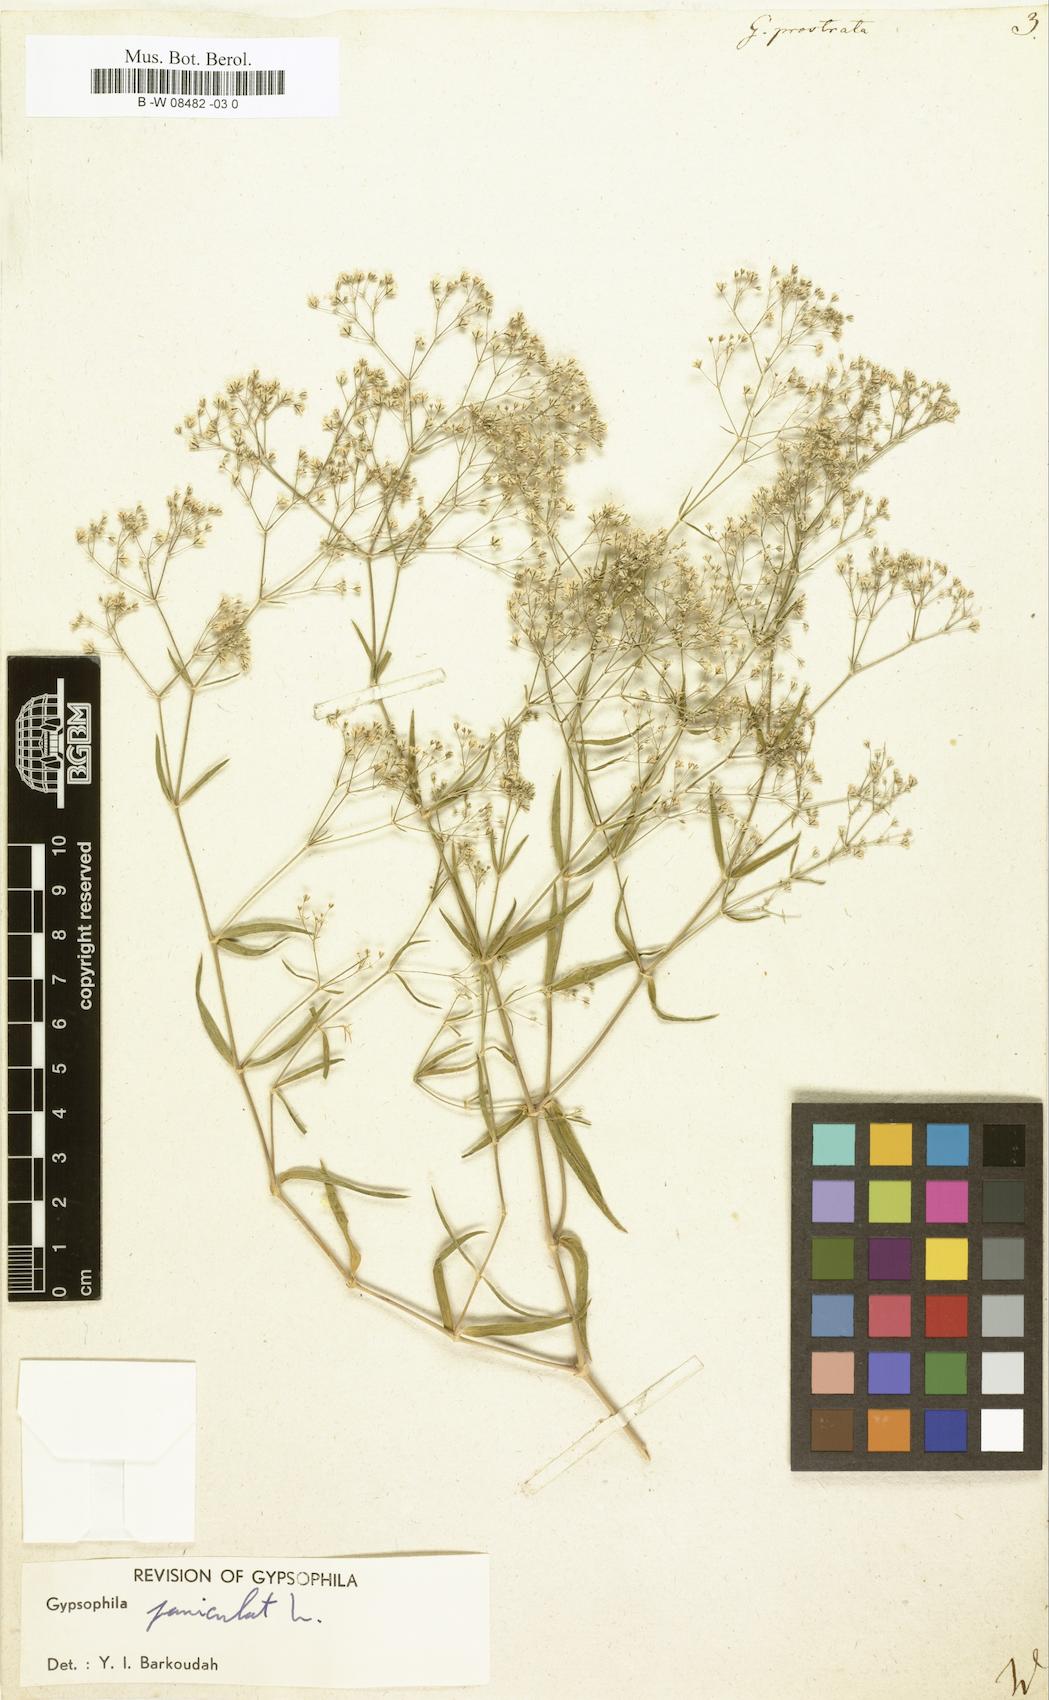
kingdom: Plantae
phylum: Tracheophyta
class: Magnoliopsida
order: Caryophyllales
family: Caryophyllaceae
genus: Gypsophila
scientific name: Gypsophila
